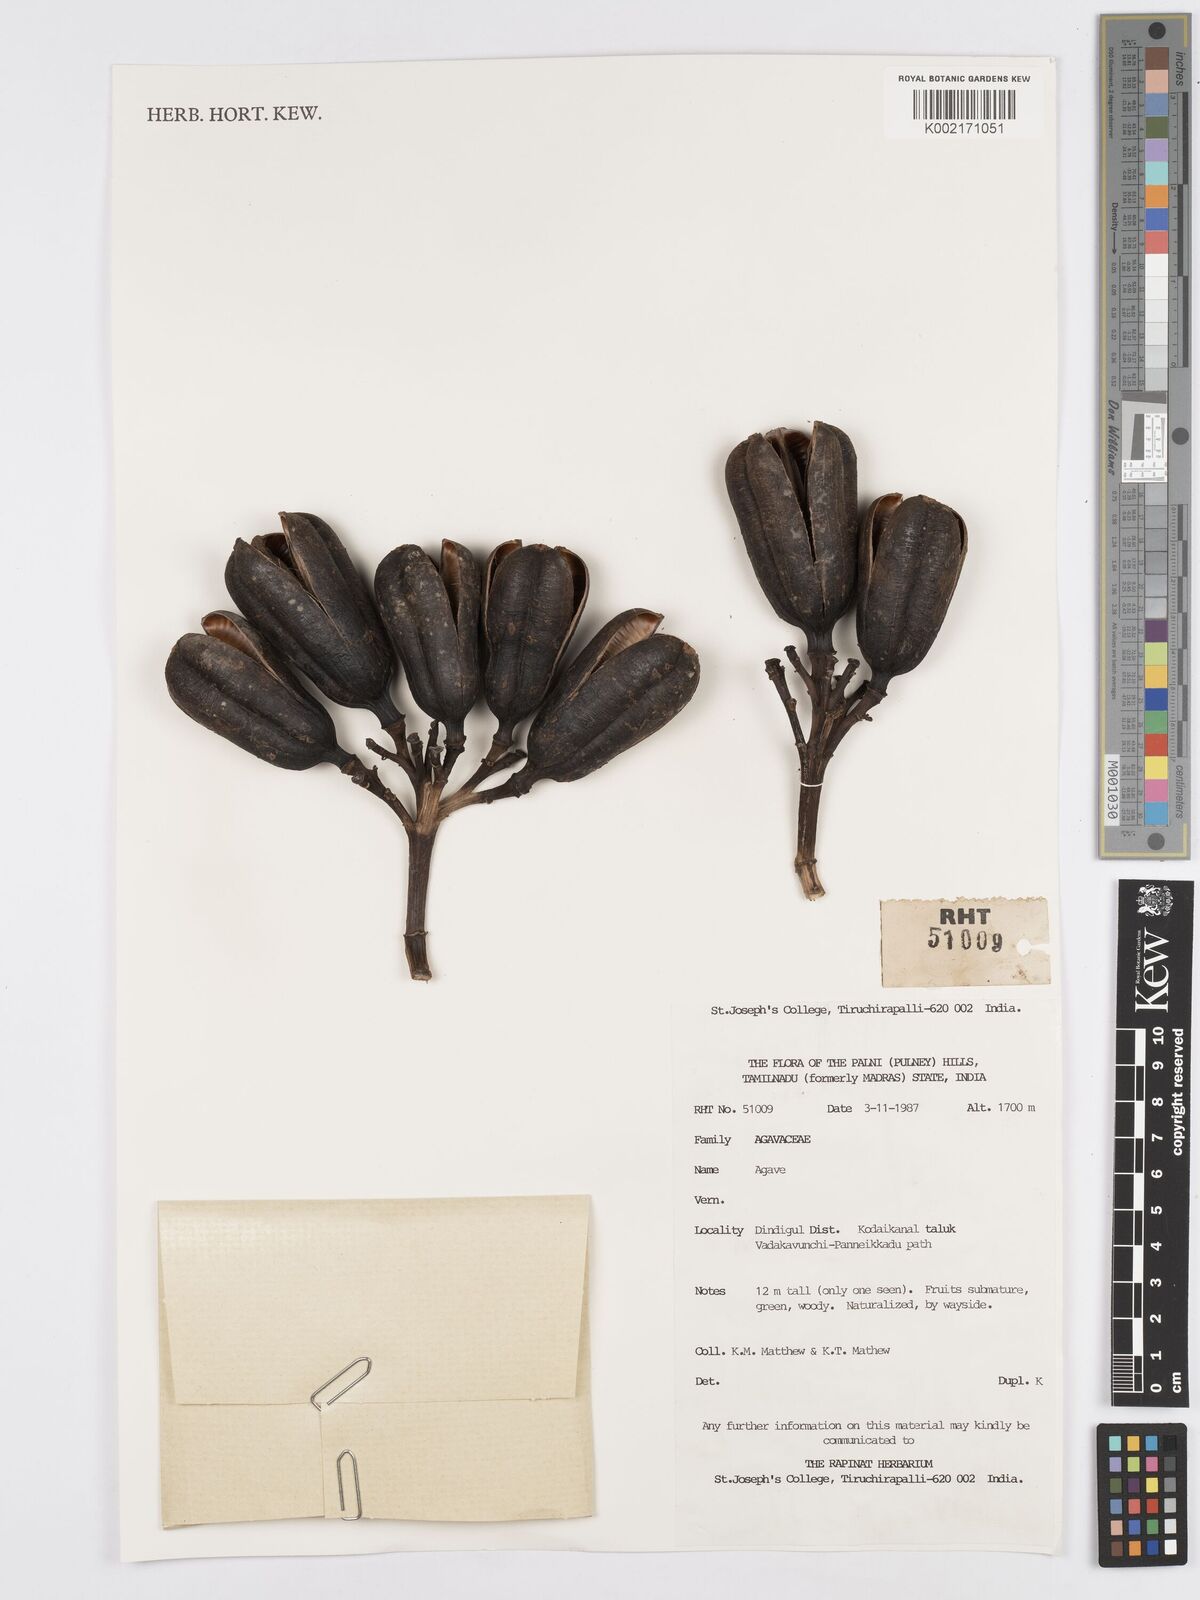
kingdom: Plantae
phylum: Tracheophyta
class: Liliopsida
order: Asparagales
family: Asparagaceae
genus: Agave
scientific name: Agave
